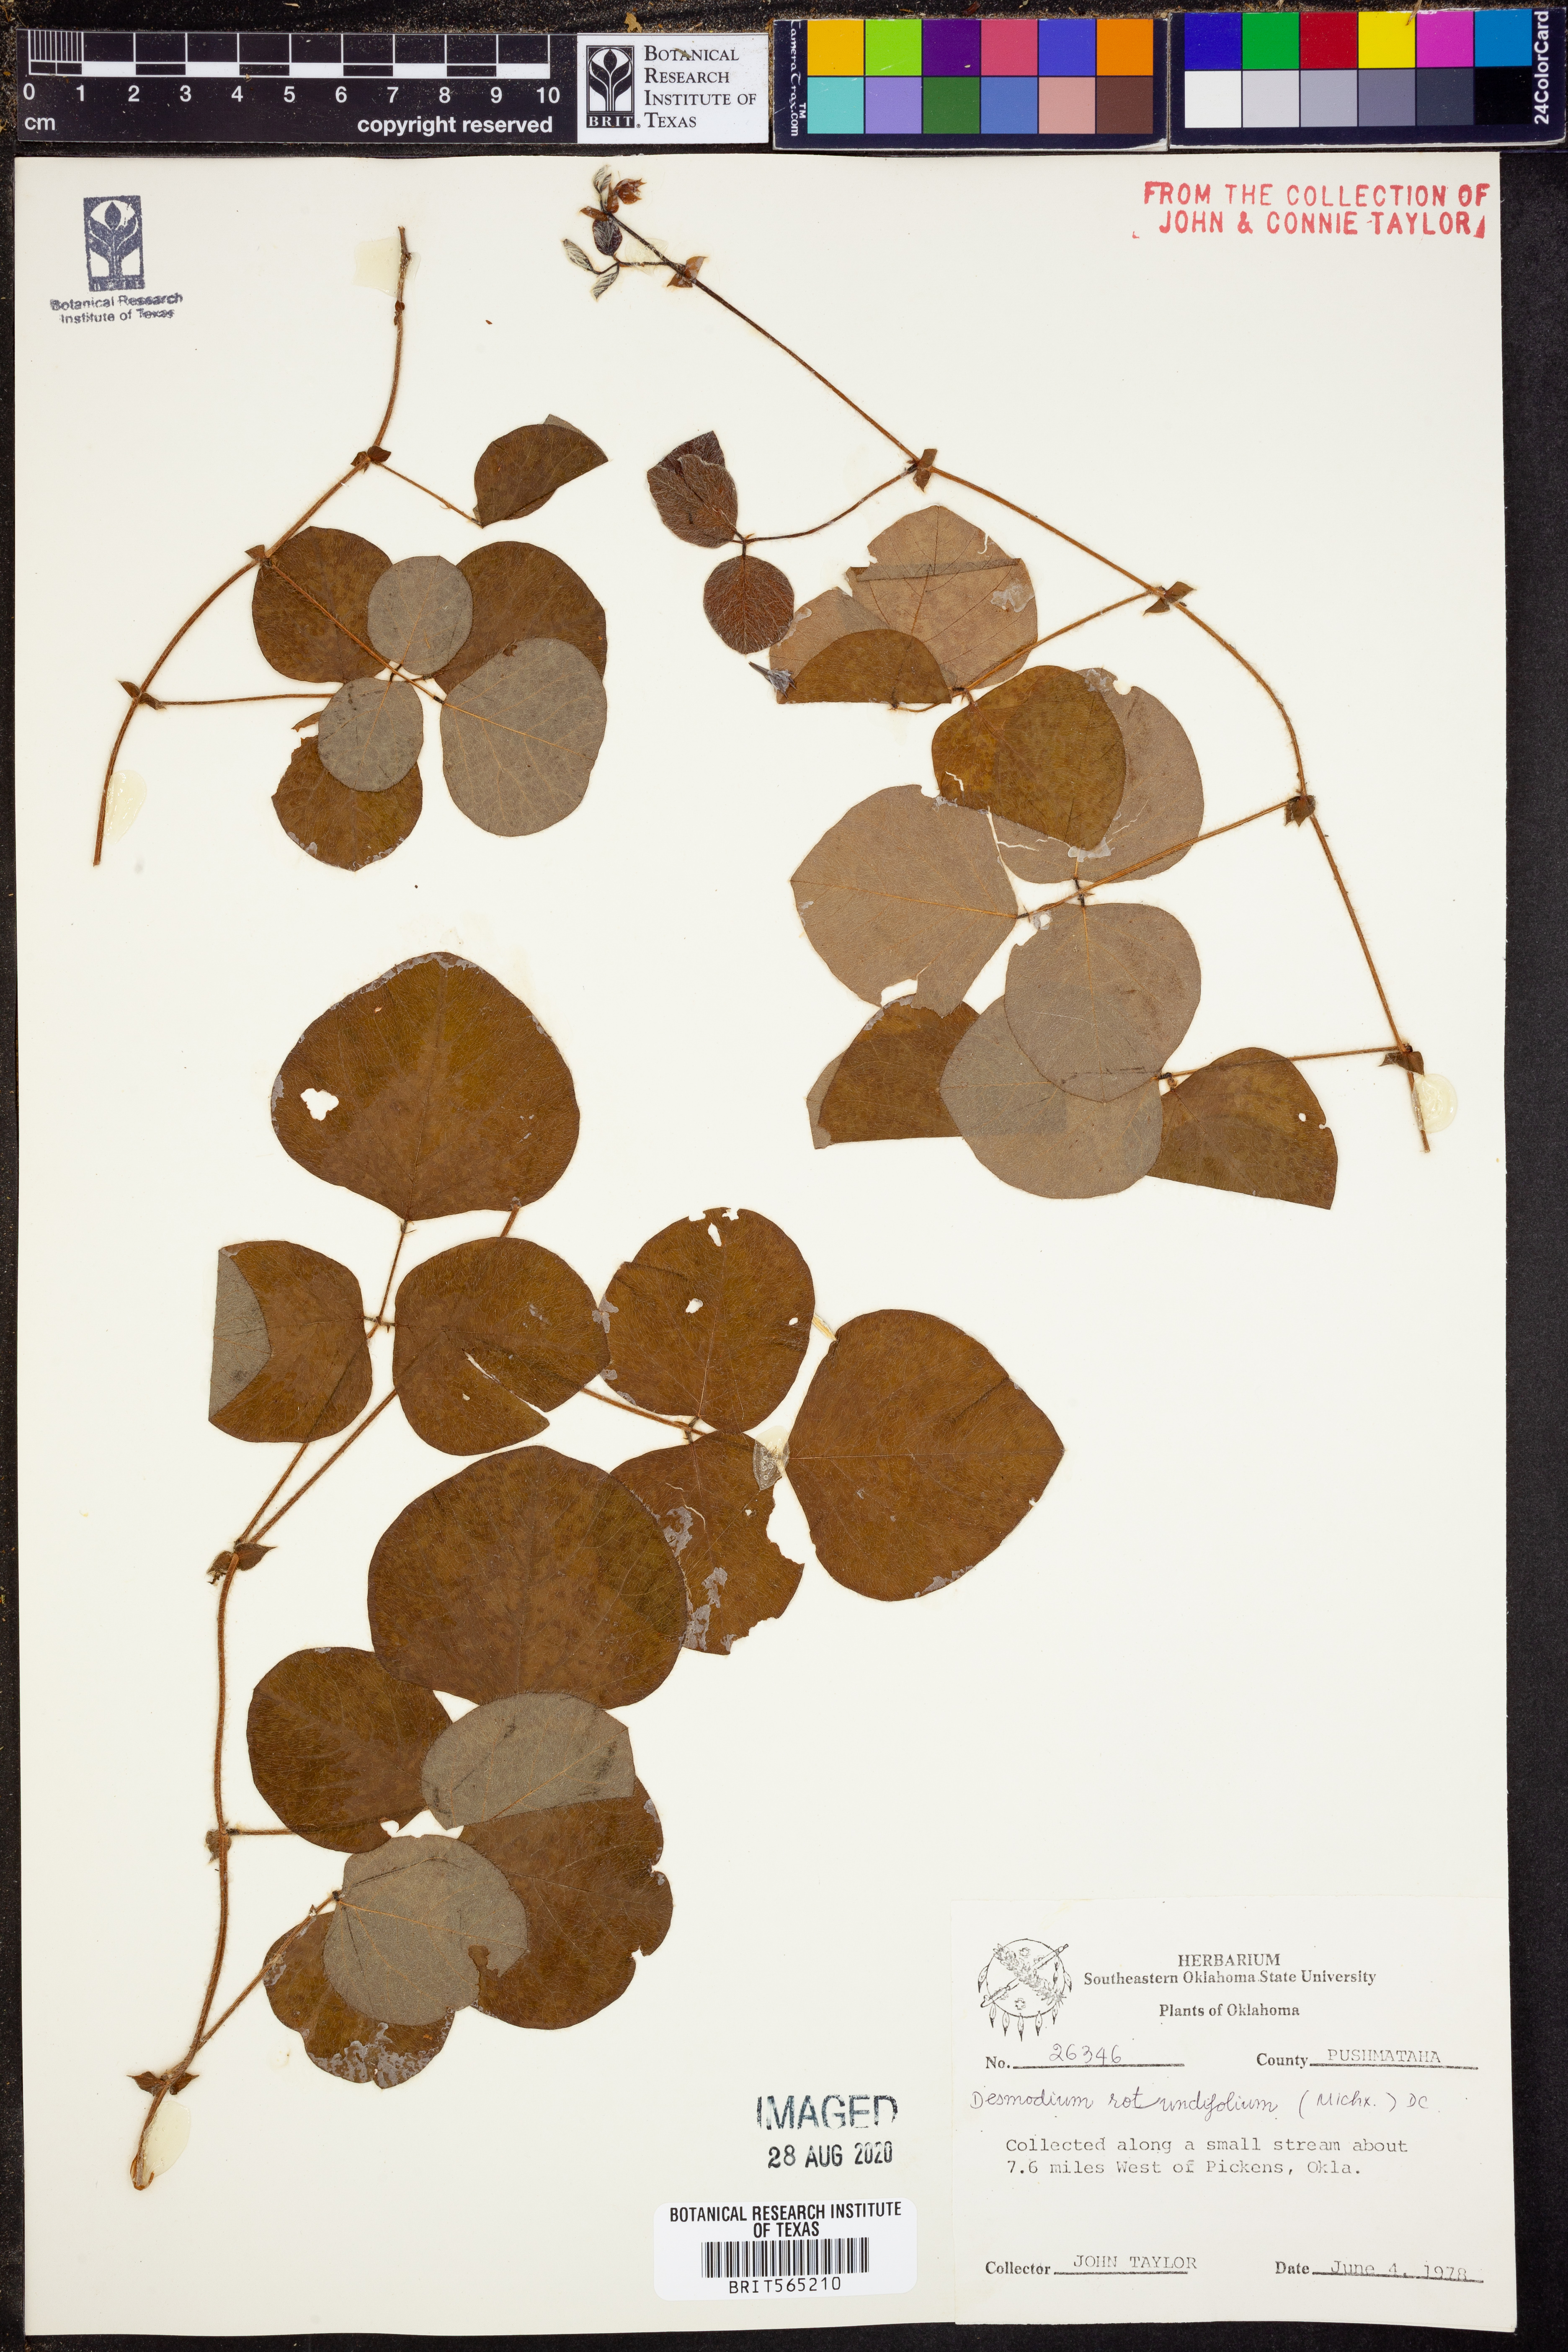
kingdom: Plantae
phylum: Tracheophyta
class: Magnoliopsida
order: Fabales
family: Fabaceae
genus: Desmodium
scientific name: Desmodium rotundifolium
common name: Dollarleaf
